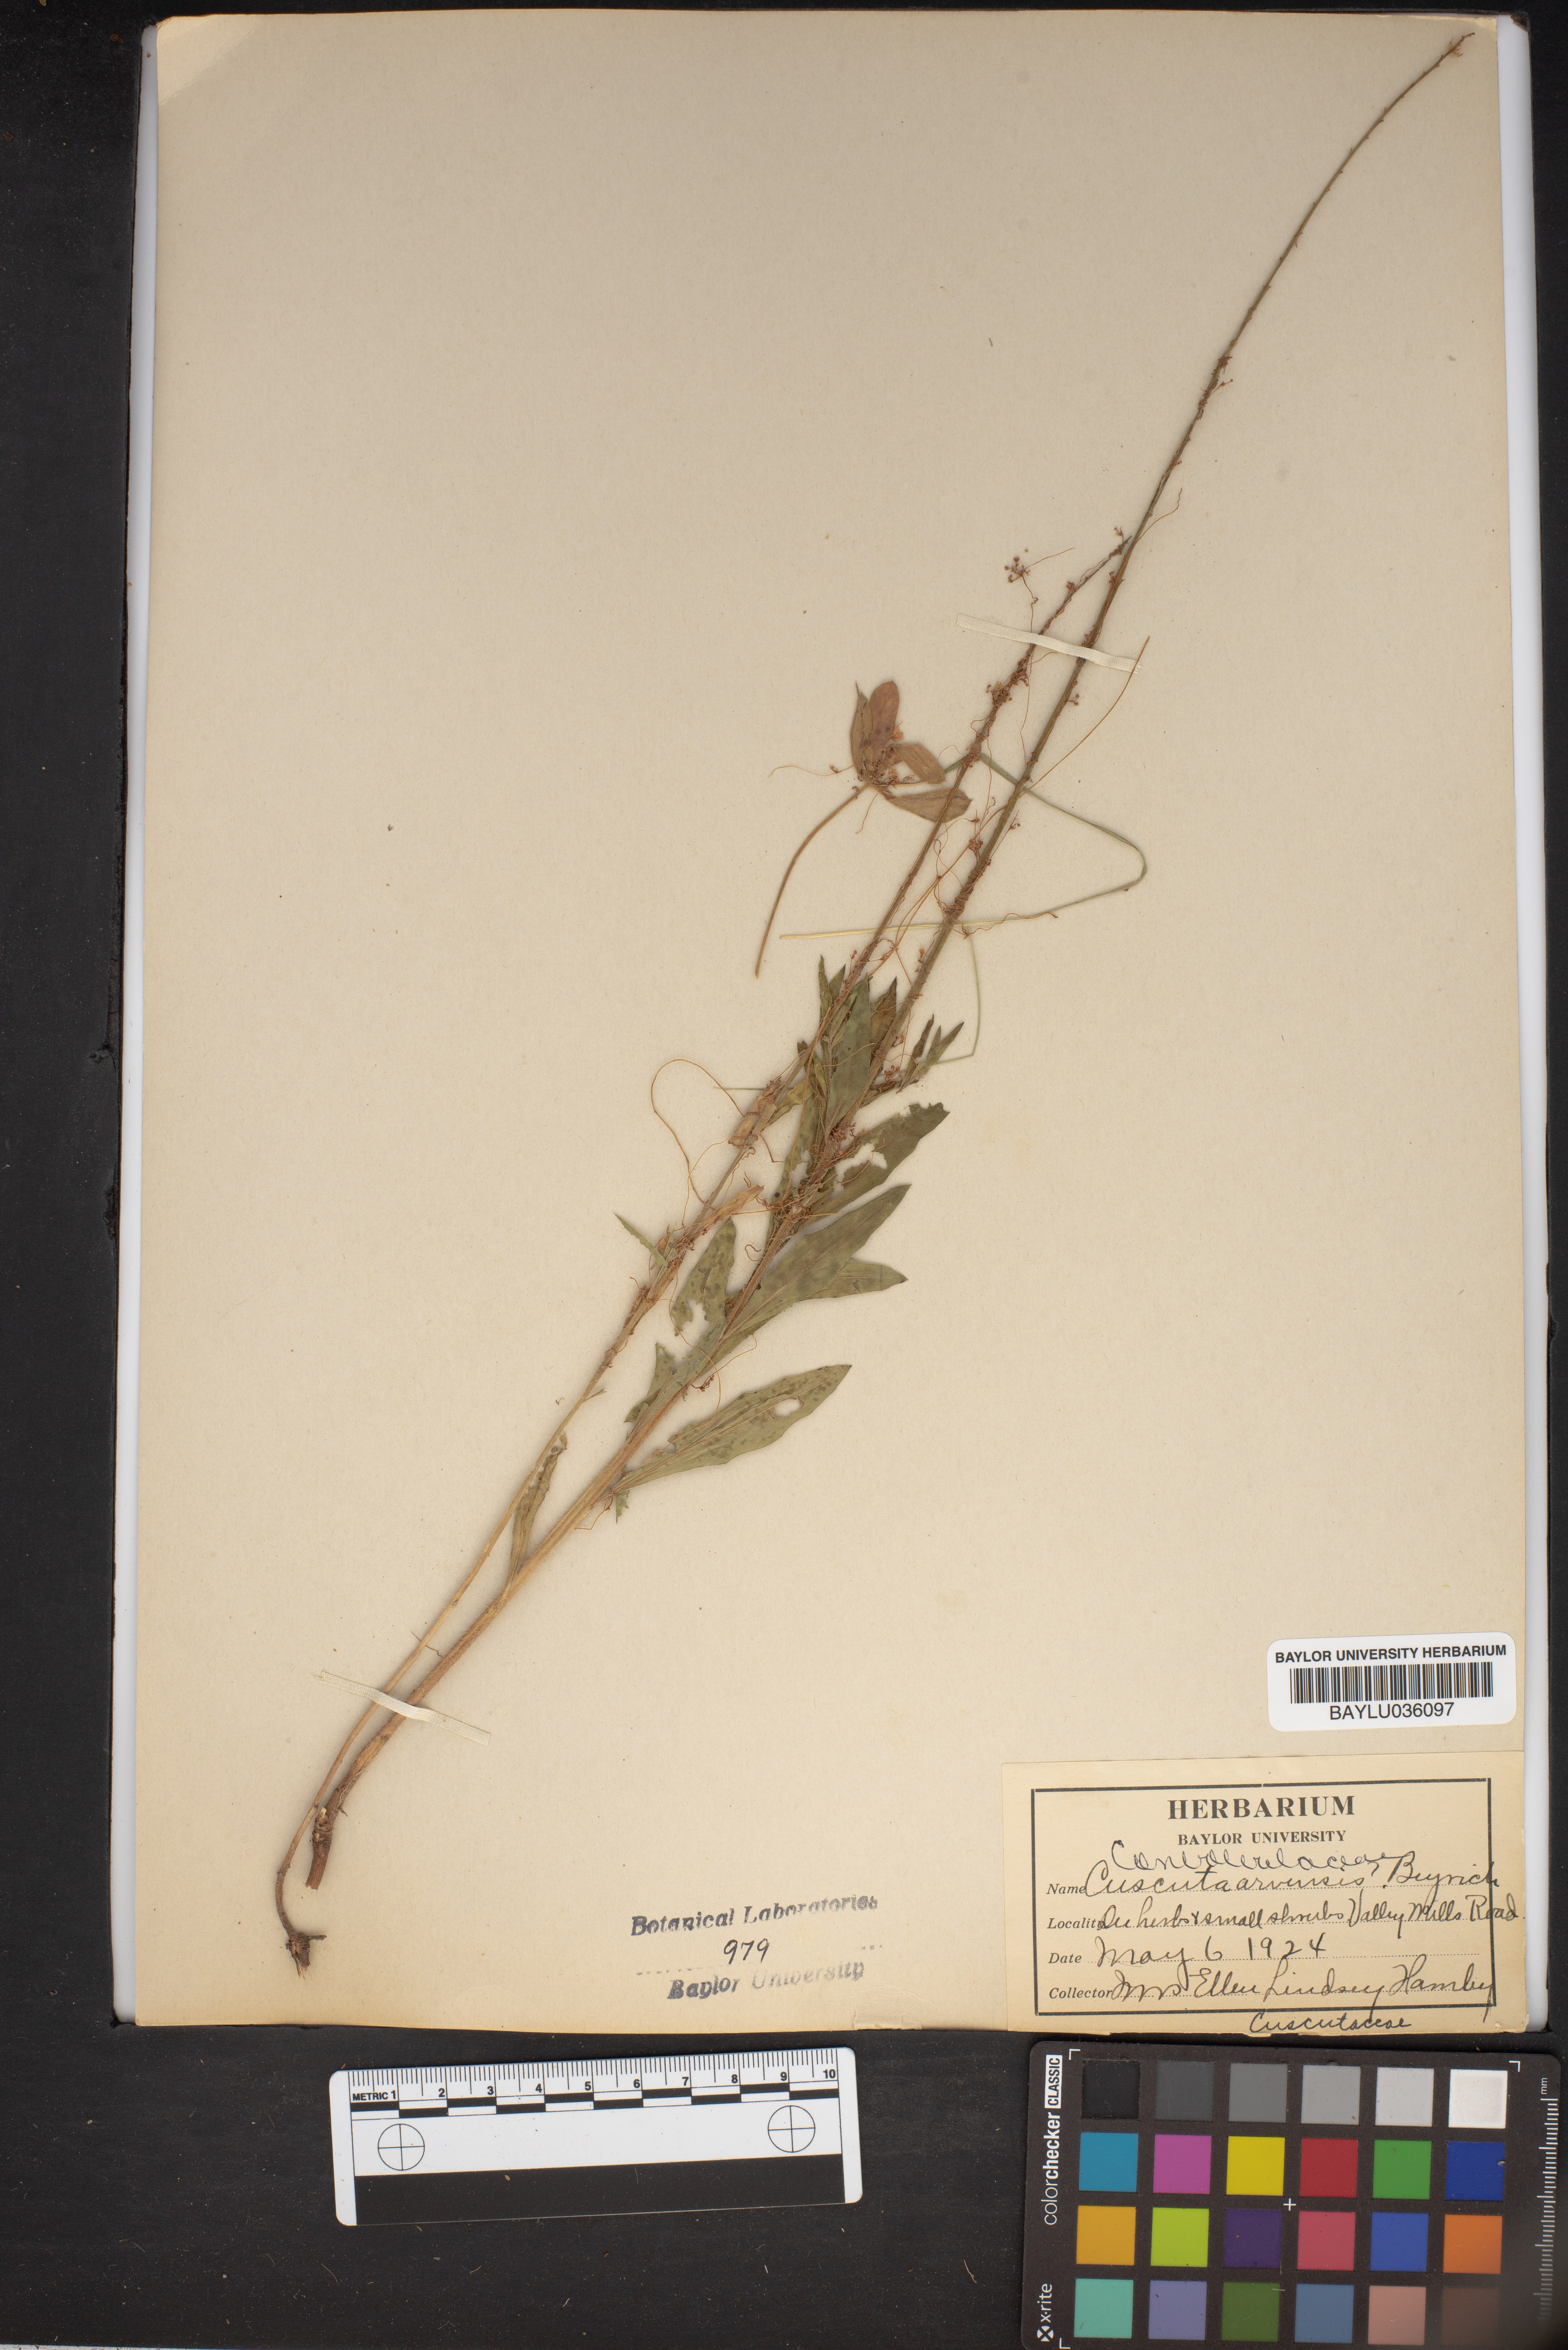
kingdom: Plantae
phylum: Tracheophyta
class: Magnoliopsida
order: Solanales
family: Convolvulaceae
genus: Cuscuta
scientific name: Cuscuta campestris
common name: Yellow dodder
